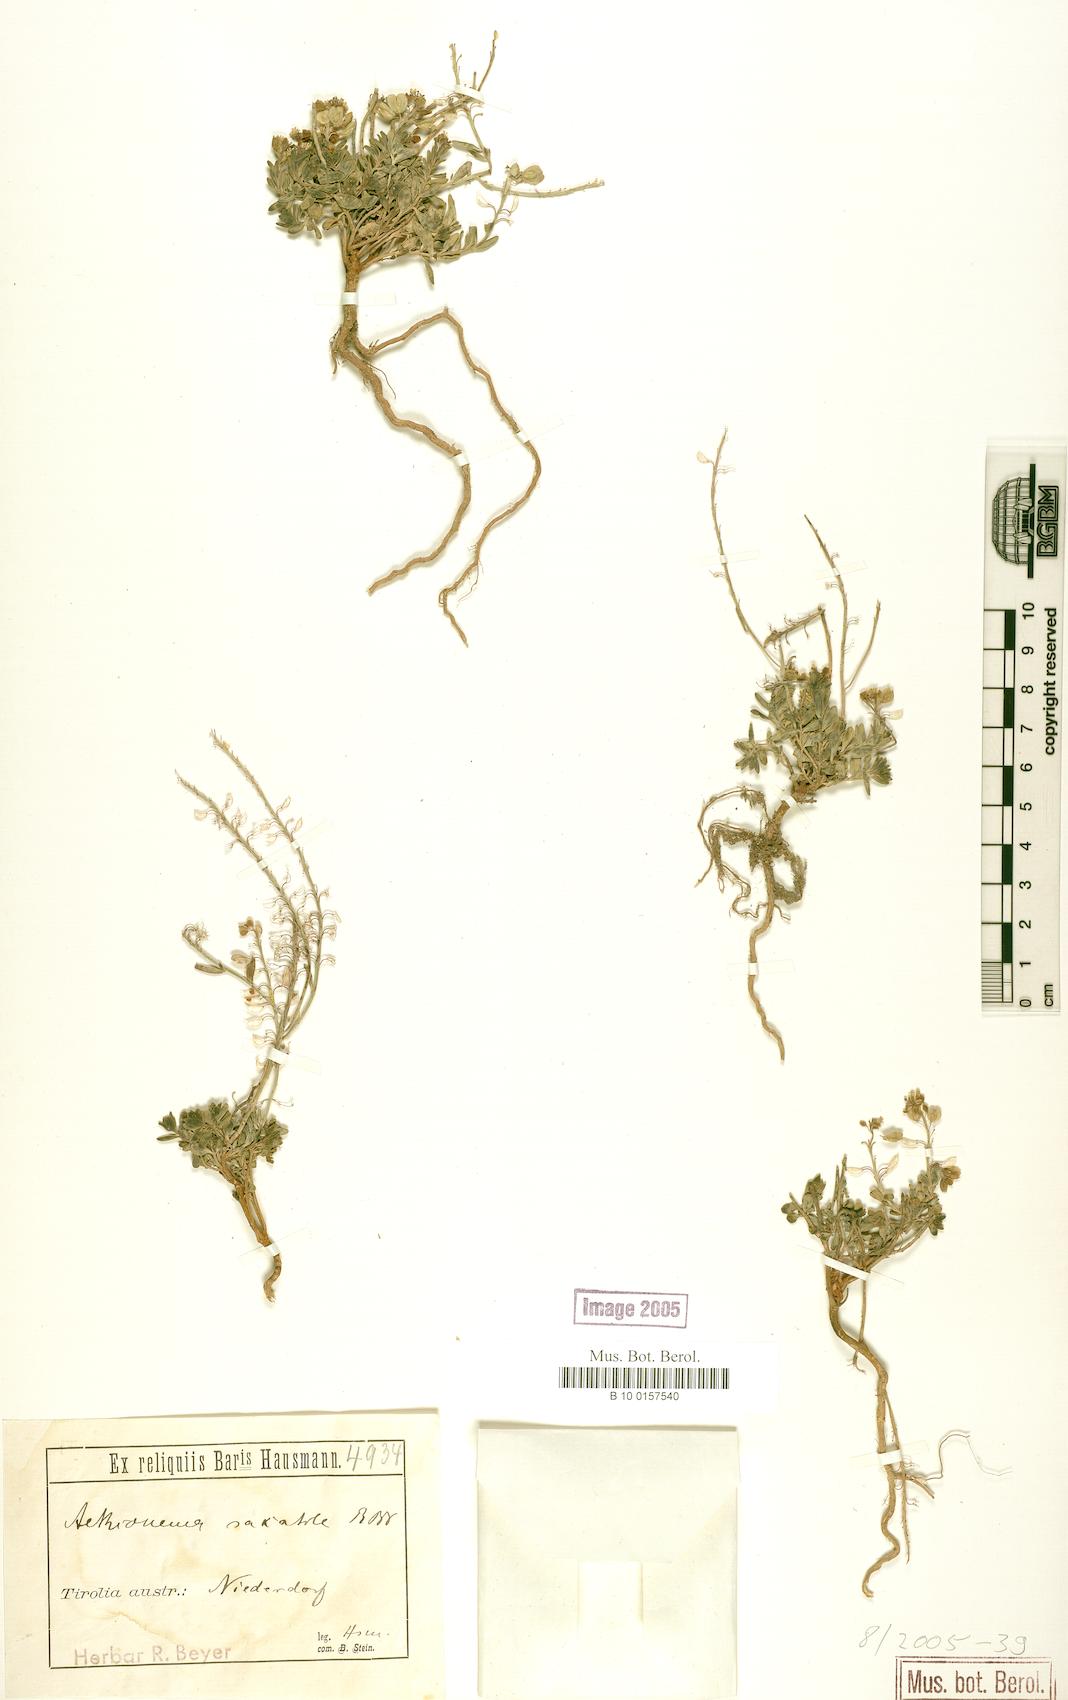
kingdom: Plantae
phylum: Tracheophyta
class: Magnoliopsida
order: Brassicales
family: Brassicaceae
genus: Aethionema
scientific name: Aethionema saxatile
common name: Burnt candytuft
